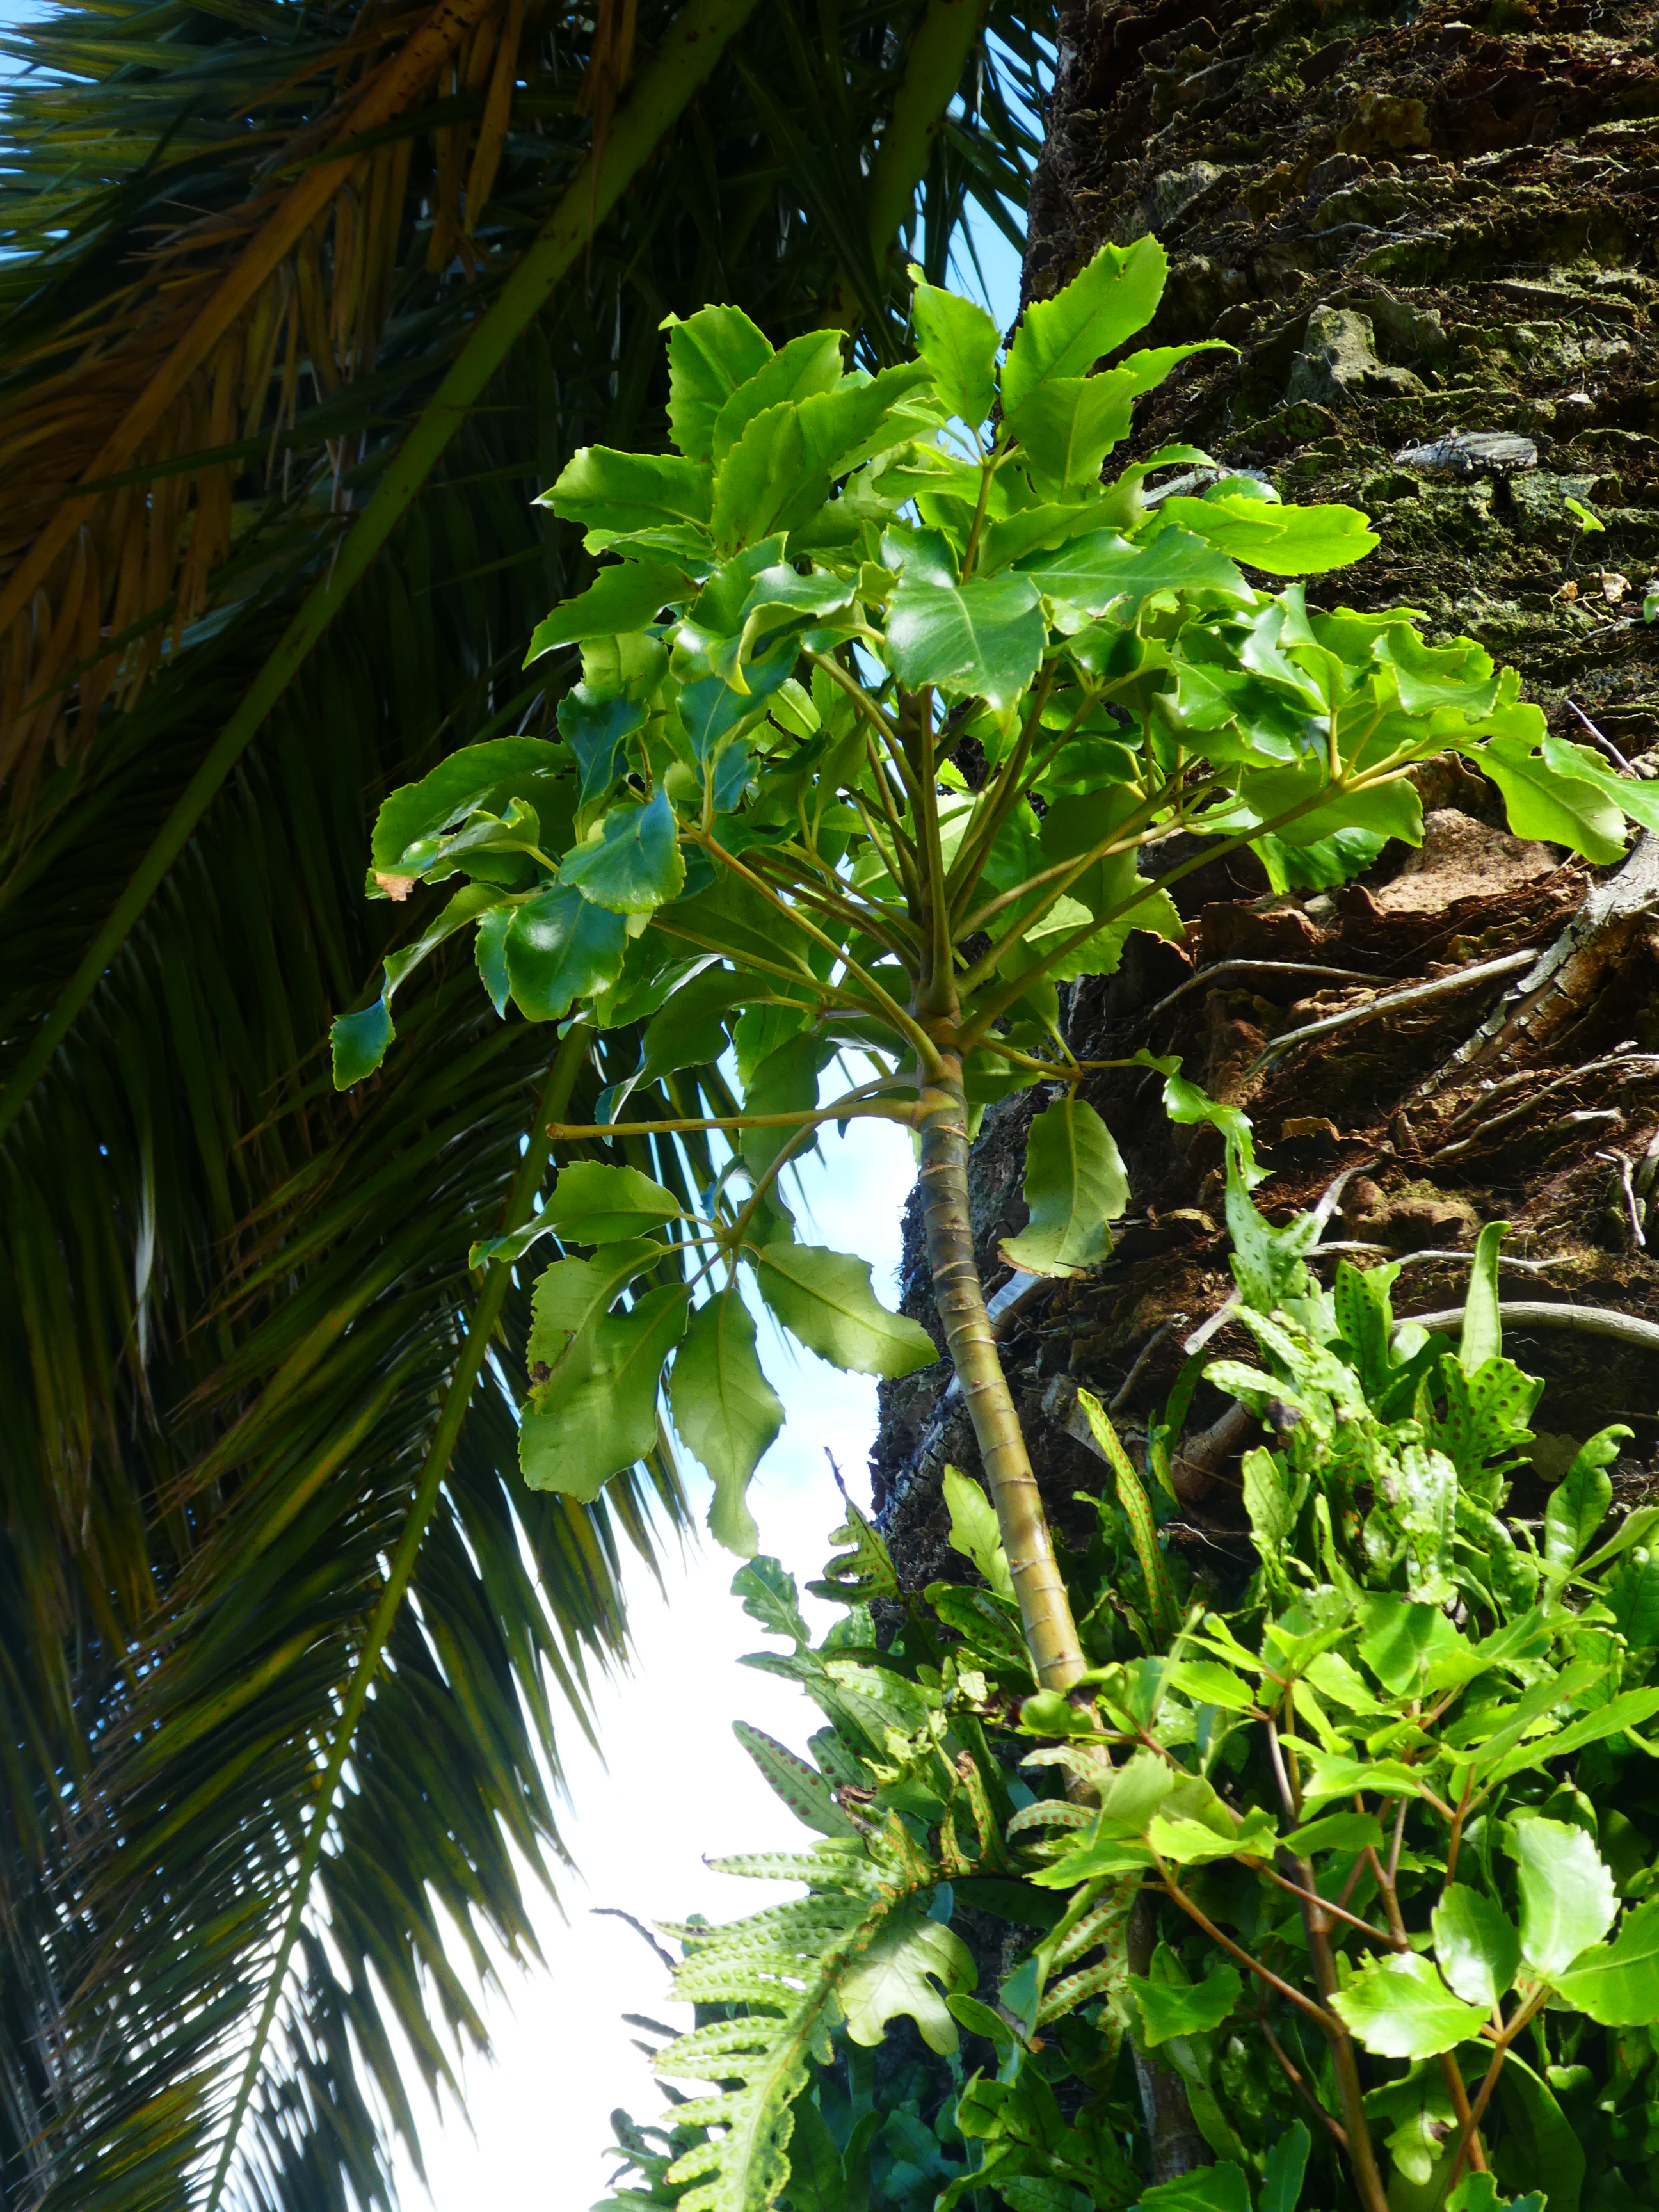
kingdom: Plantae
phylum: Tracheophyta
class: Magnoliopsida
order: Apiales
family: Araliaceae
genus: Neopanax
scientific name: Neopanax arboreus
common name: Five-fingers
